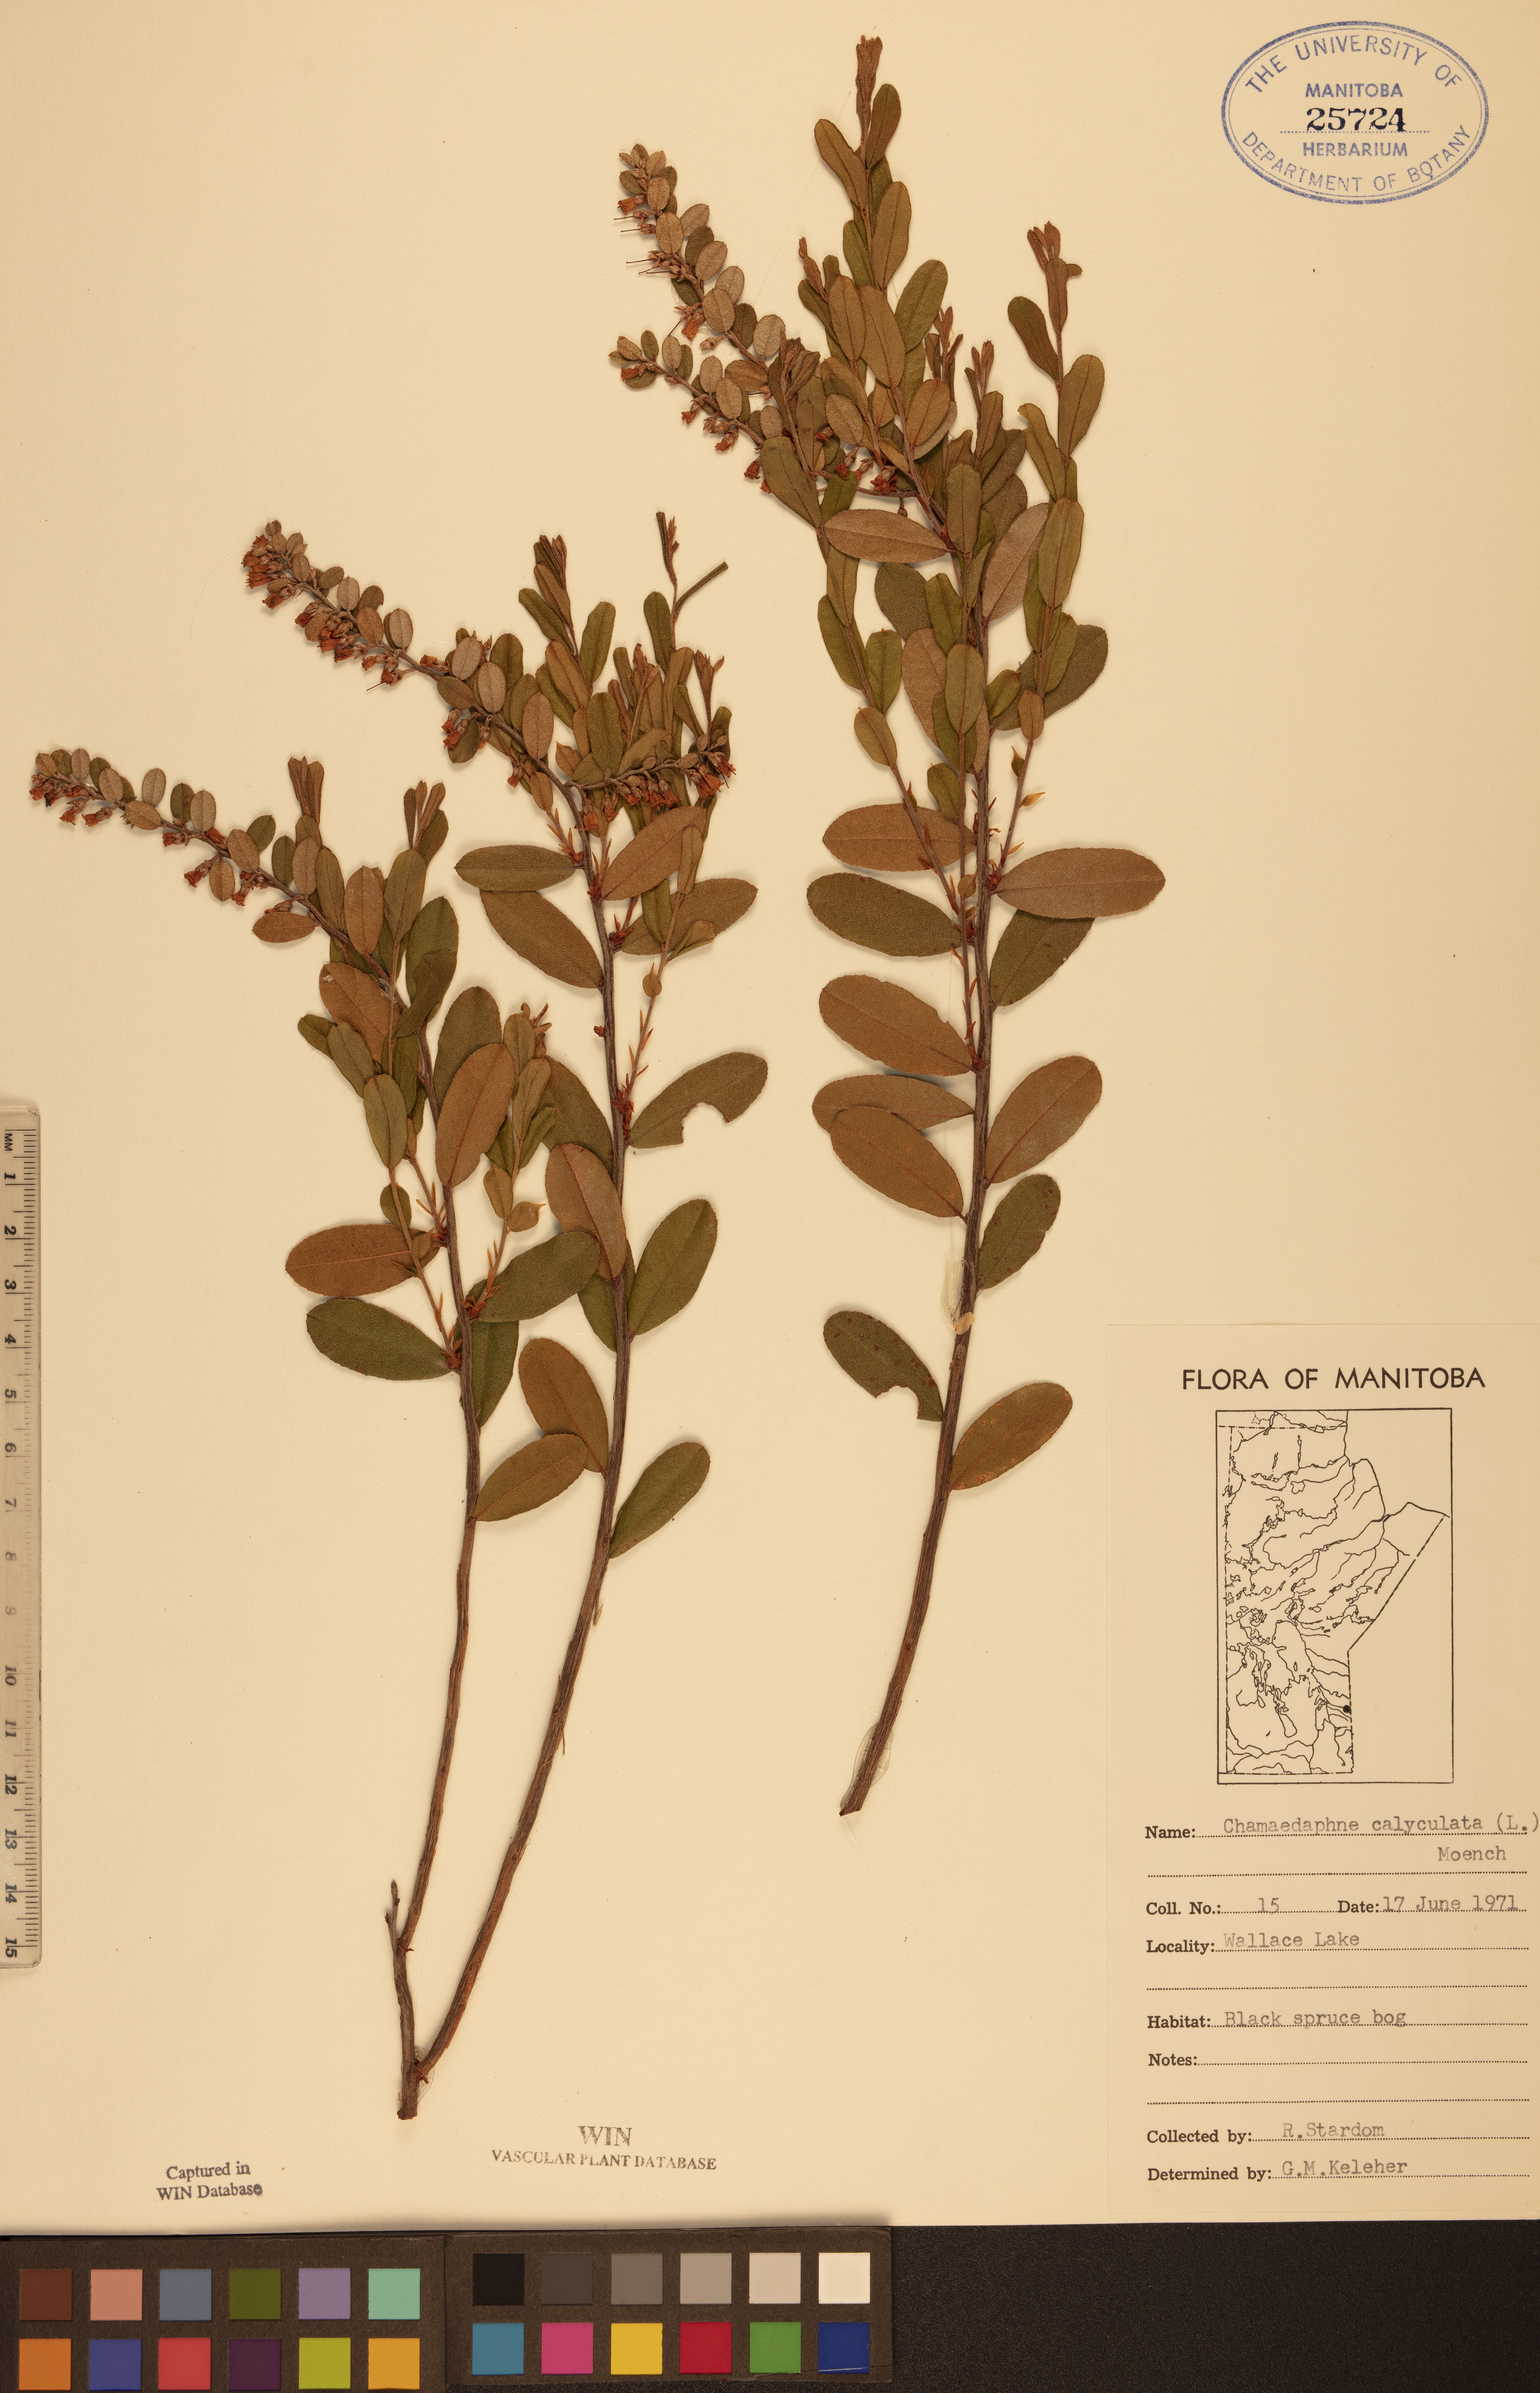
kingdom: Plantae
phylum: Tracheophyta
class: Magnoliopsida
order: Ericales
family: Ericaceae
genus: Chamaedaphne
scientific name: Chamaedaphne calyculata
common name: Leatherleaf
